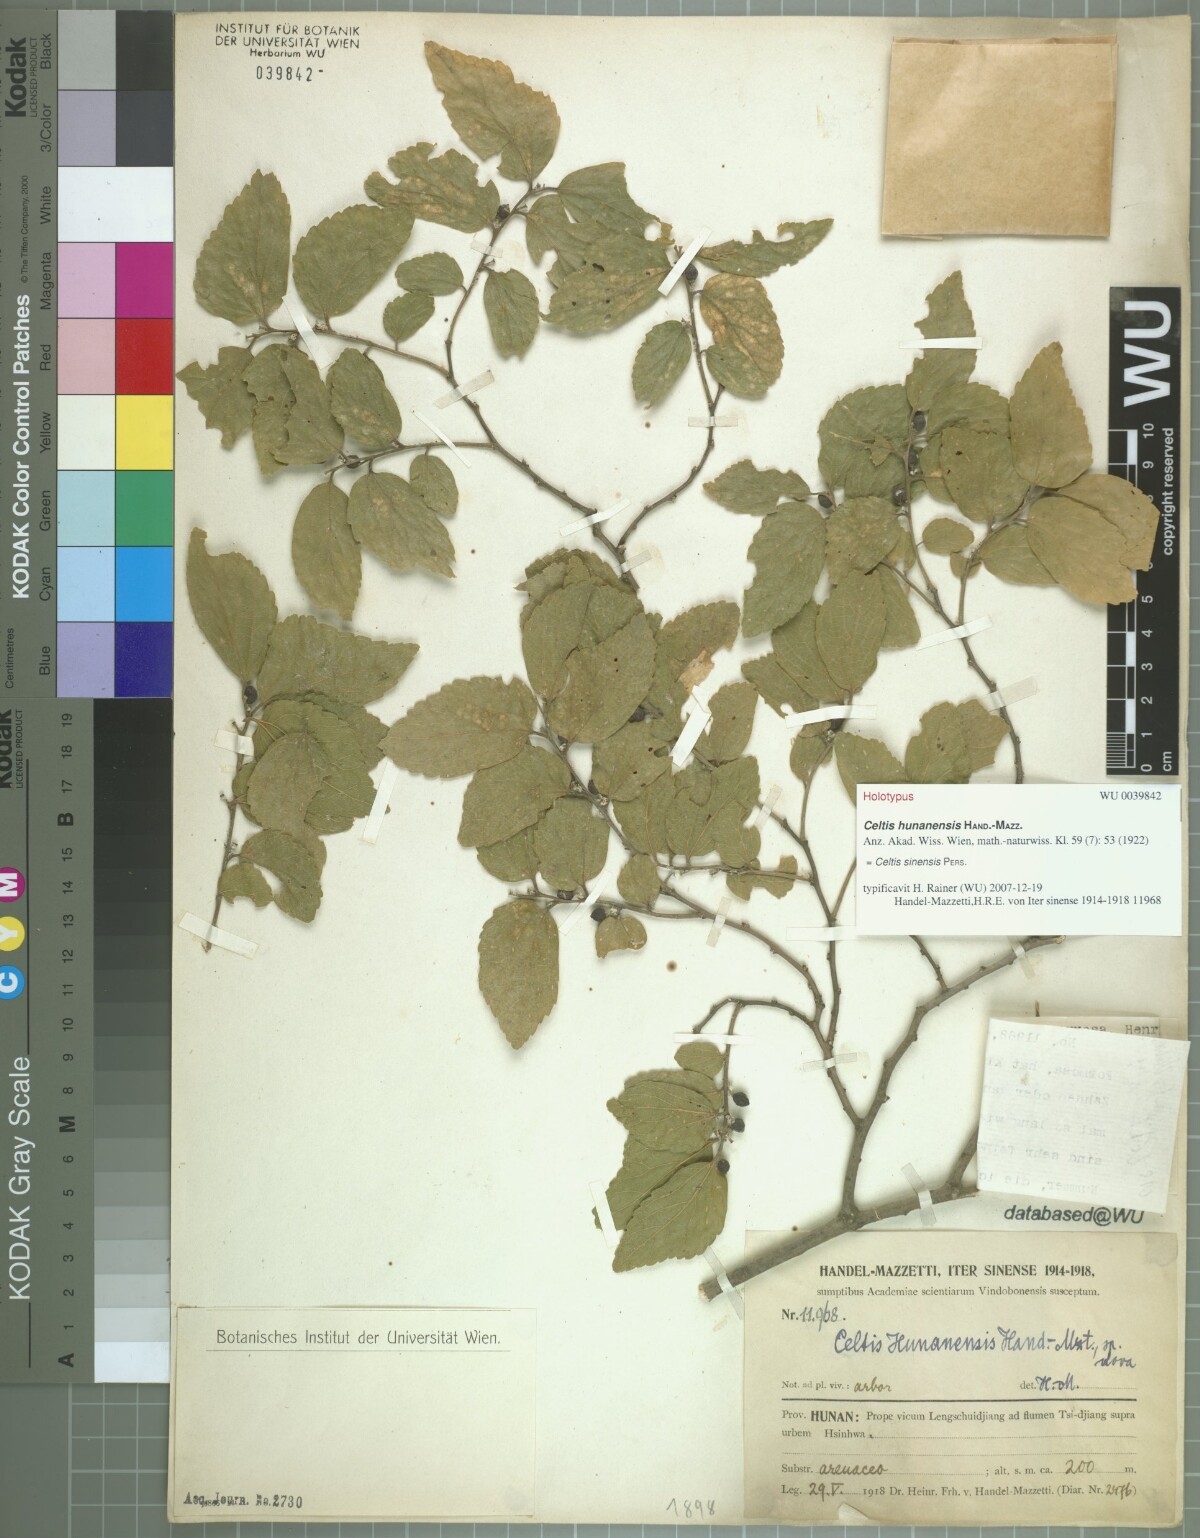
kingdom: Plantae
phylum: Tracheophyta
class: Magnoliopsida
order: Rosales
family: Cannabaceae
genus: Celtis
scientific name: Celtis sinensis
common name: Chinese hackberry
